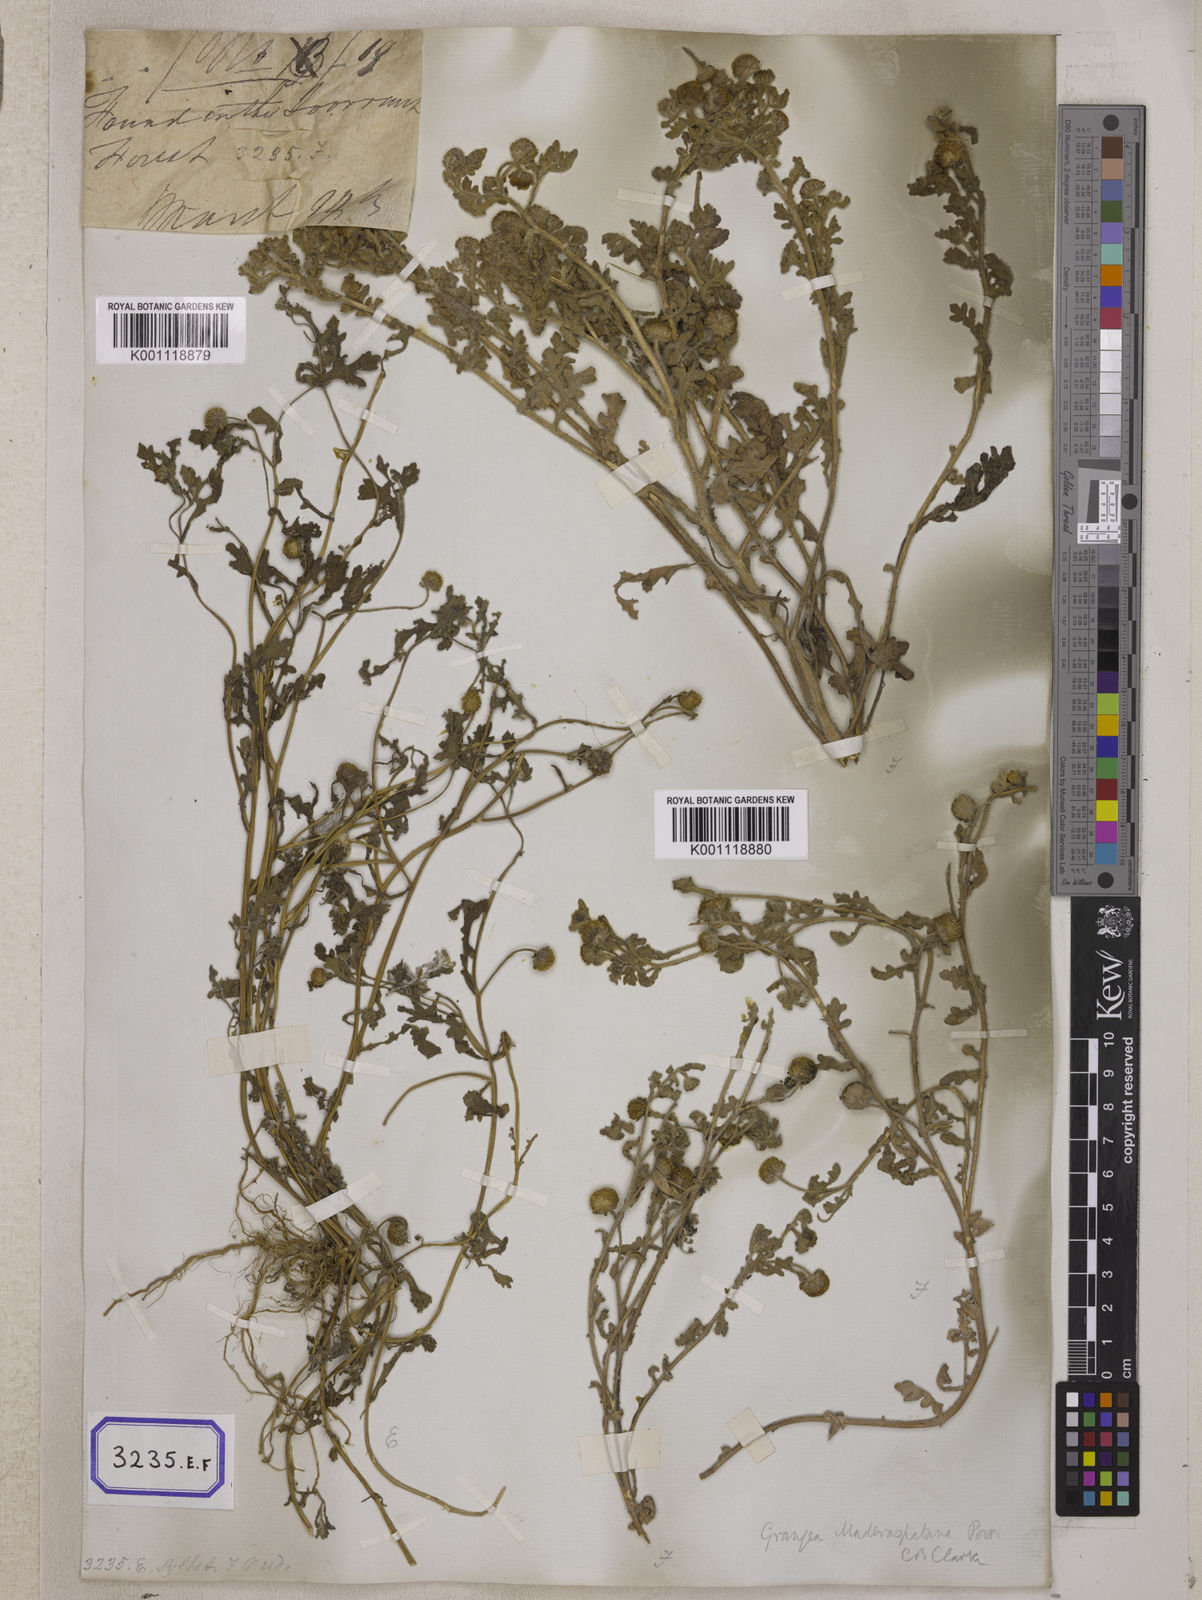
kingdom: Plantae
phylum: Tracheophyta
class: Magnoliopsida
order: Asterales
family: Asteraceae
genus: Grangea
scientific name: Grangea
